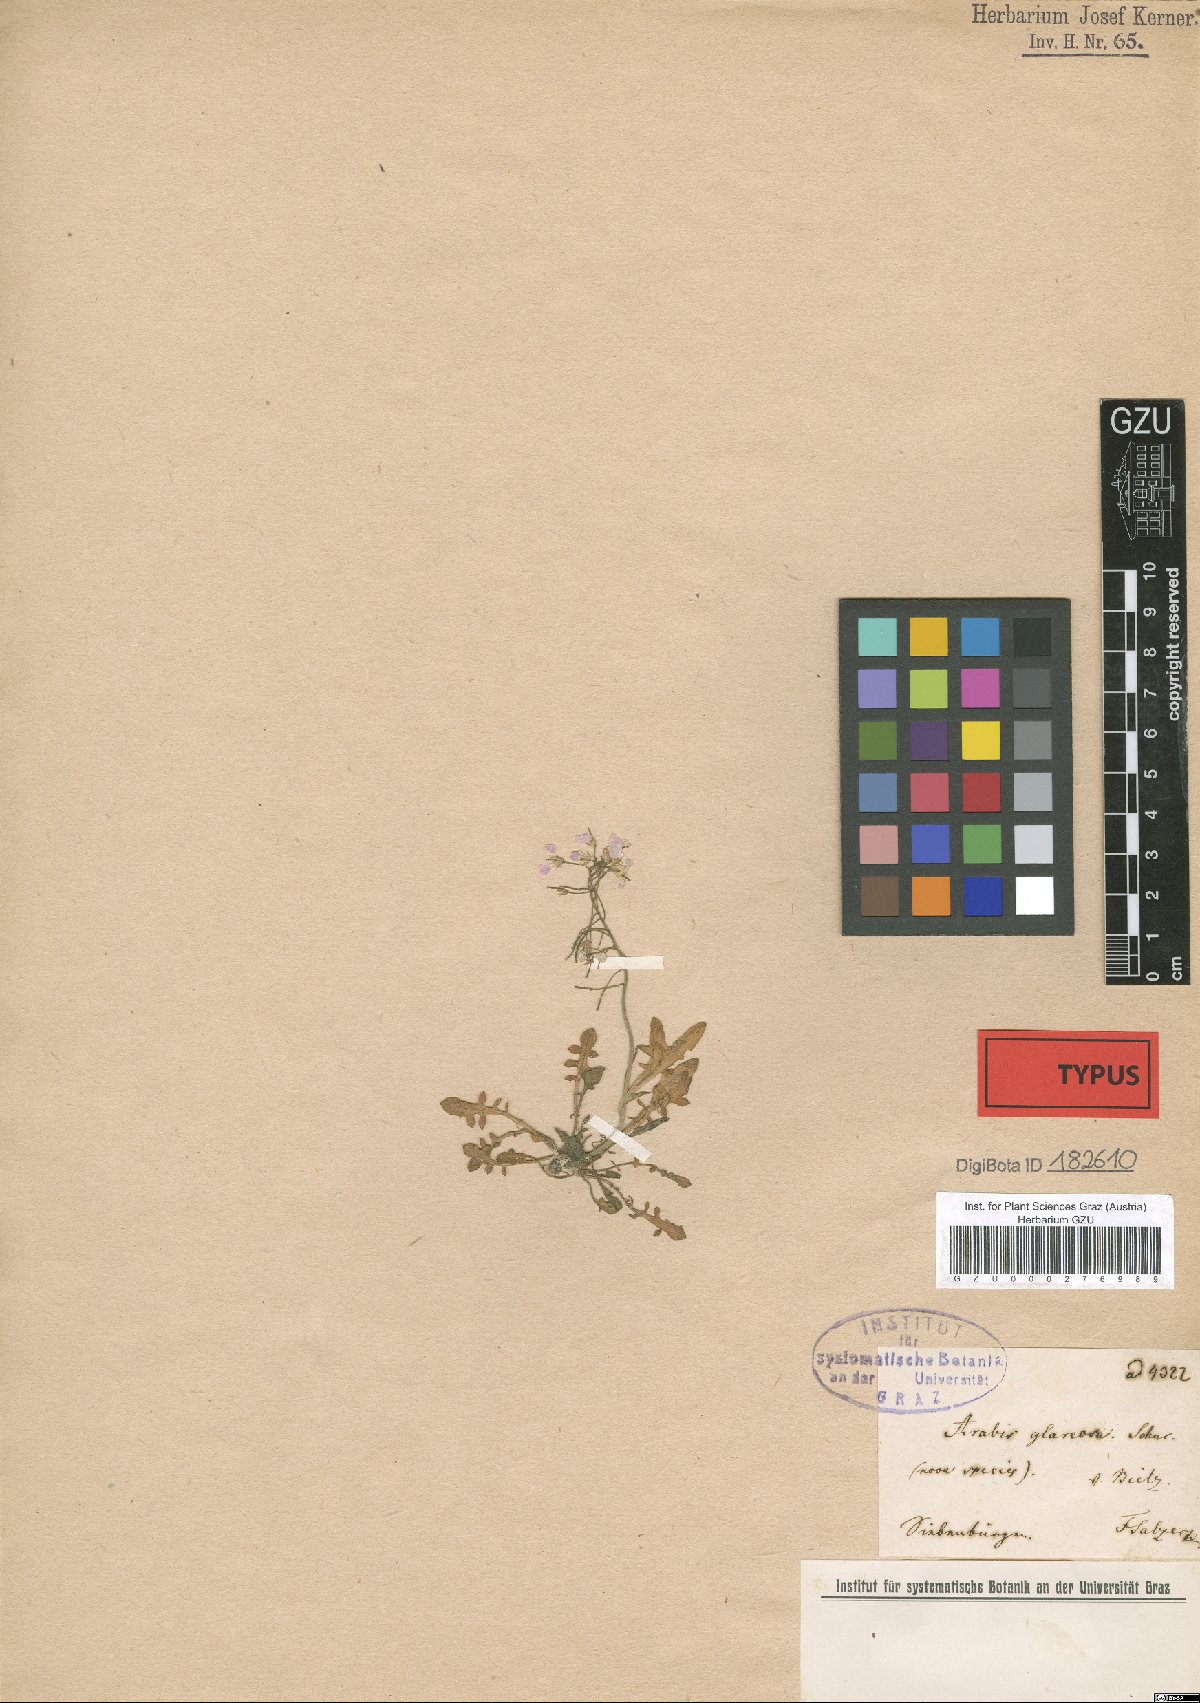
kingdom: Plantae
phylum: Tracheophyta
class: Magnoliopsida
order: Brassicales
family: Brassicaceae
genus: Arabidopsis
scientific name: Arabidopsis neglecta
